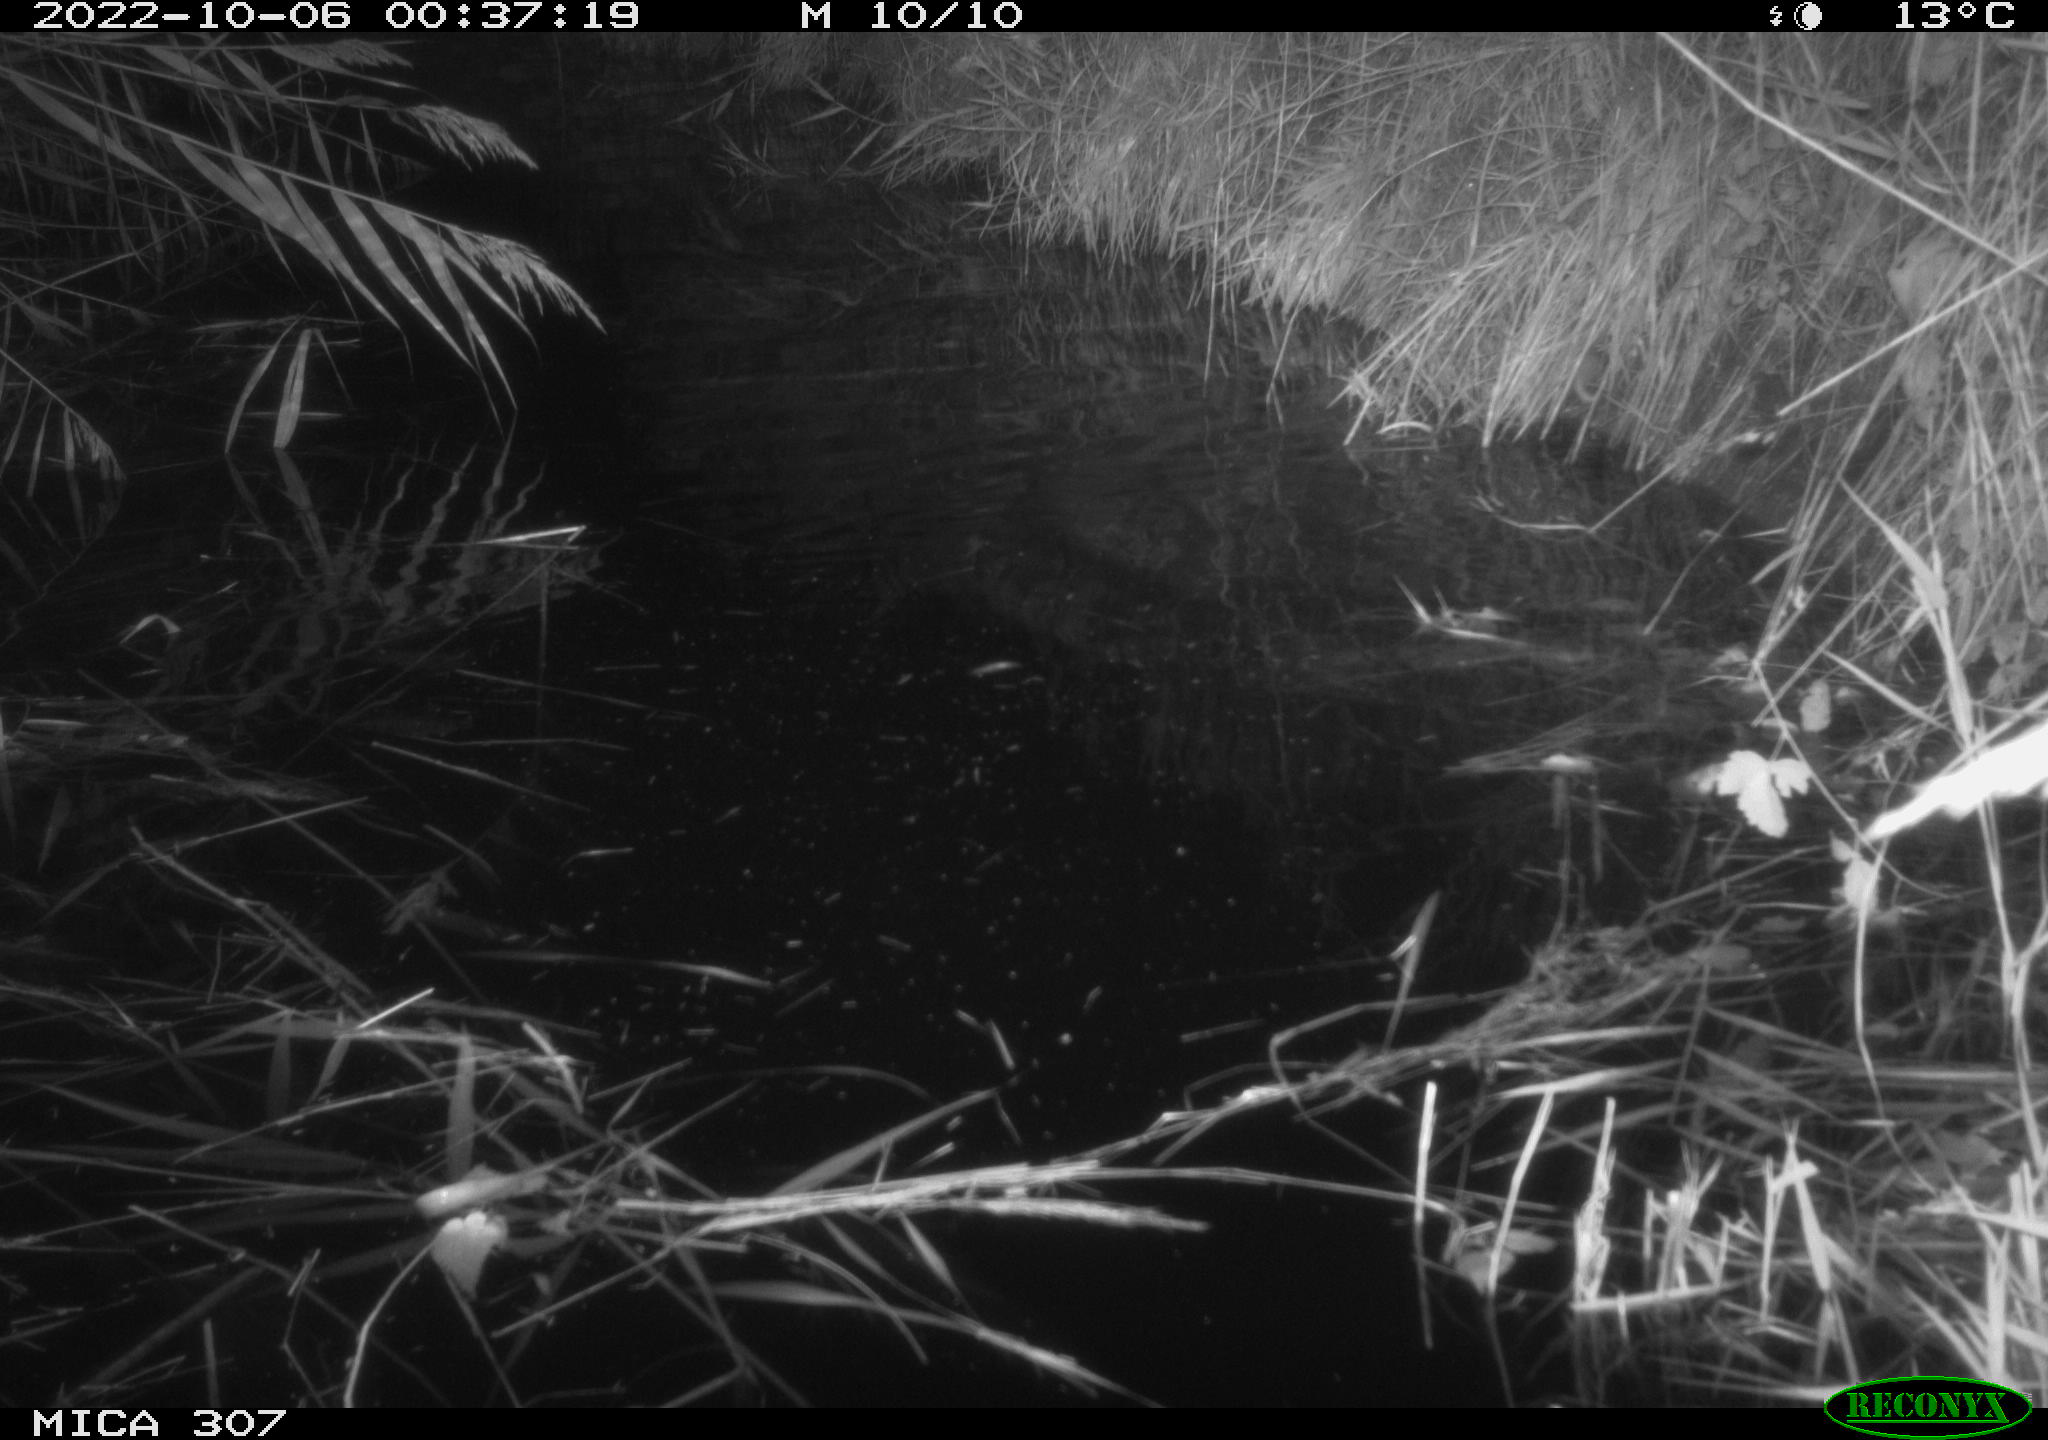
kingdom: Animalia
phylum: Chordata
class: Mammalia
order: Rodentia
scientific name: Rodentia
